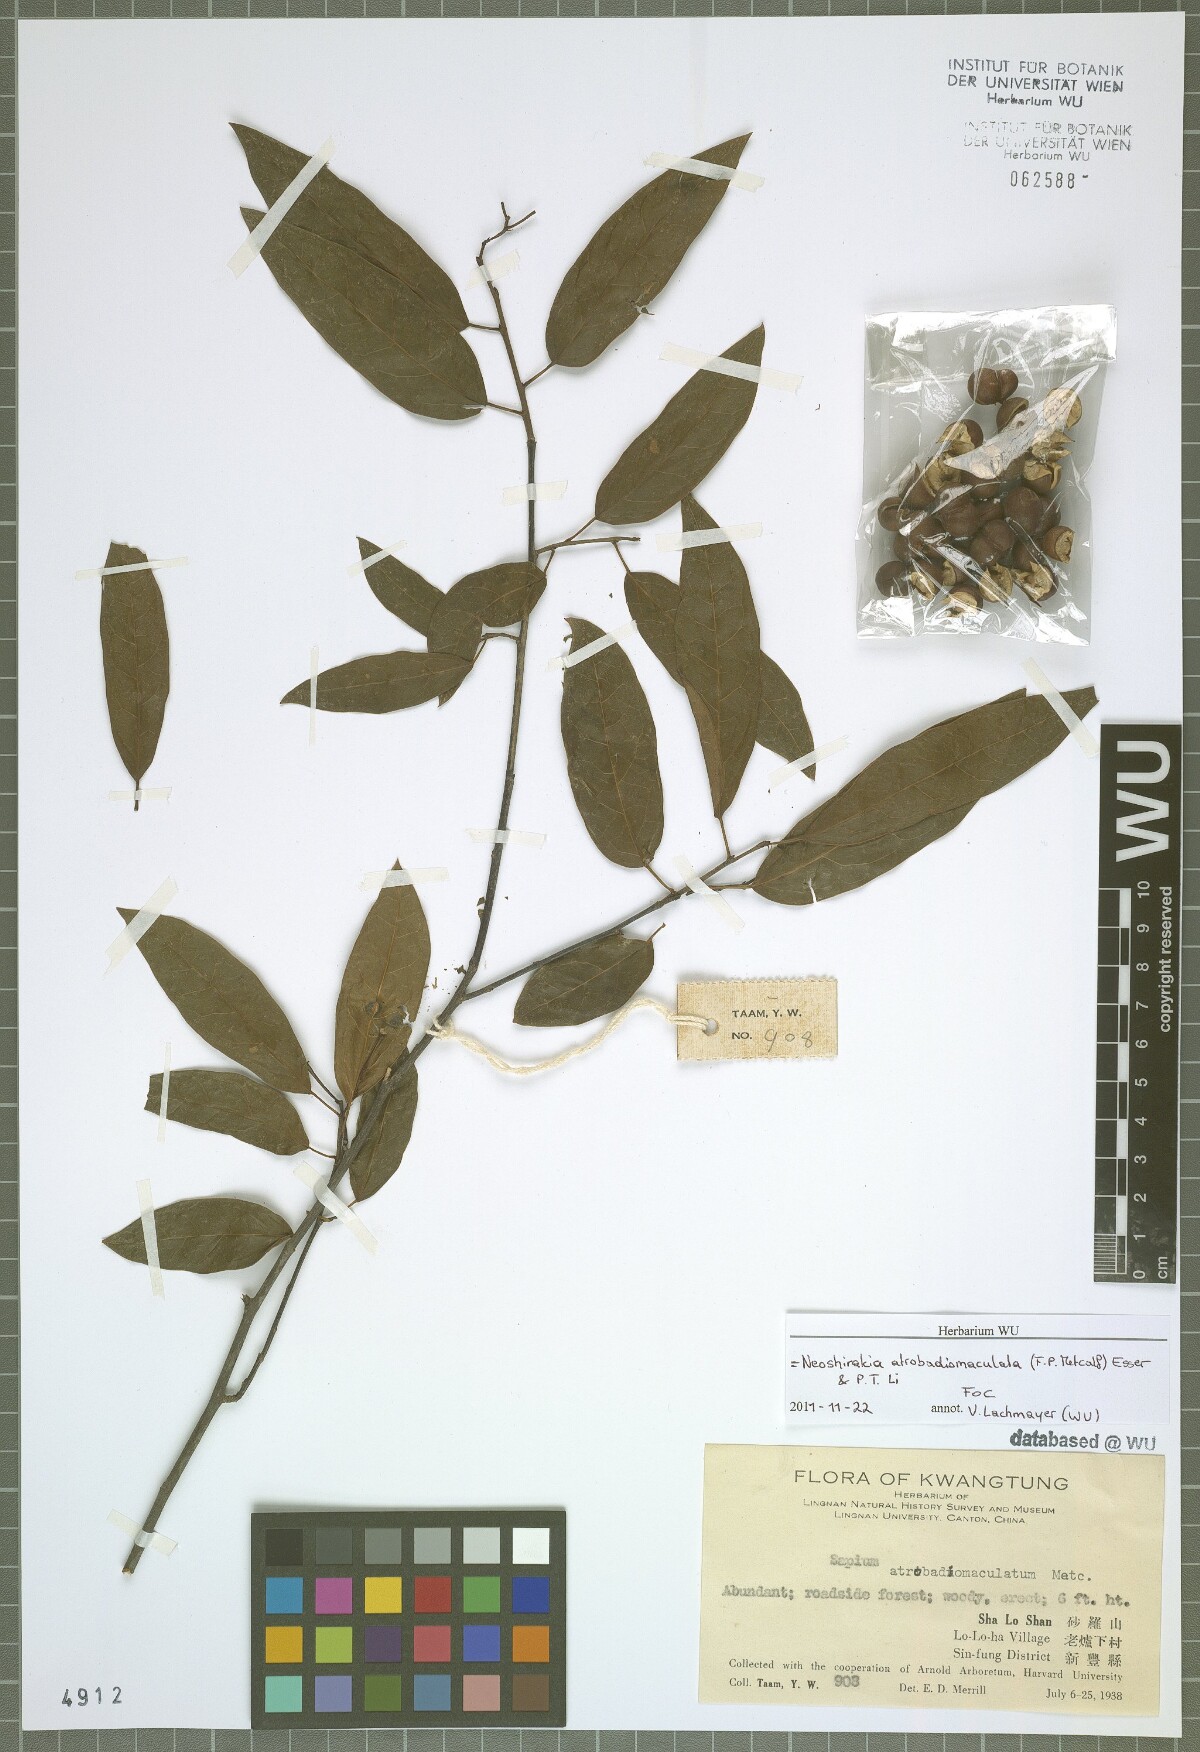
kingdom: Plantae
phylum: Tracheophyta
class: Magnoliopsida
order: Malpighiales
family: Euphorbiaceae
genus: Neoshirakia
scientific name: Neoshirakia atrobadiomaculata
